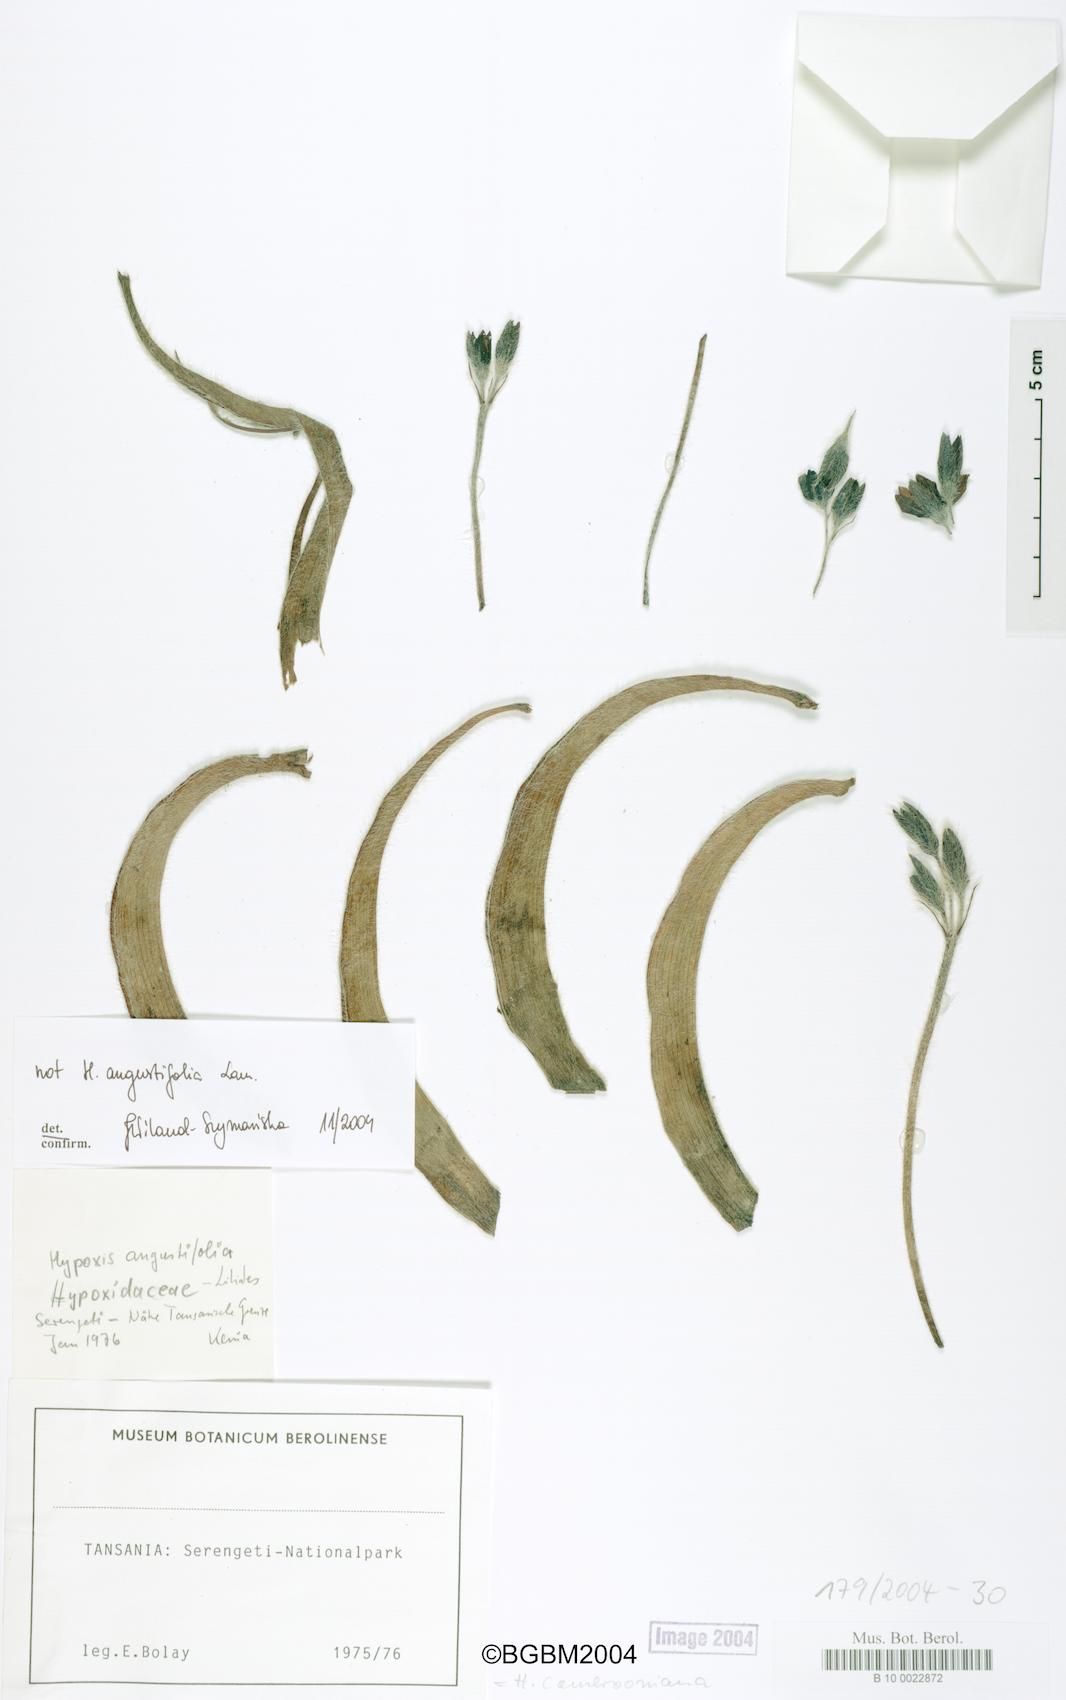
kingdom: Plantae
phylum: Tracheophyta
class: Liliopsida
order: Asparagales
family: Hypoxidaceae
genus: Hypoxis
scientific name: Hypoxis angustifolia
